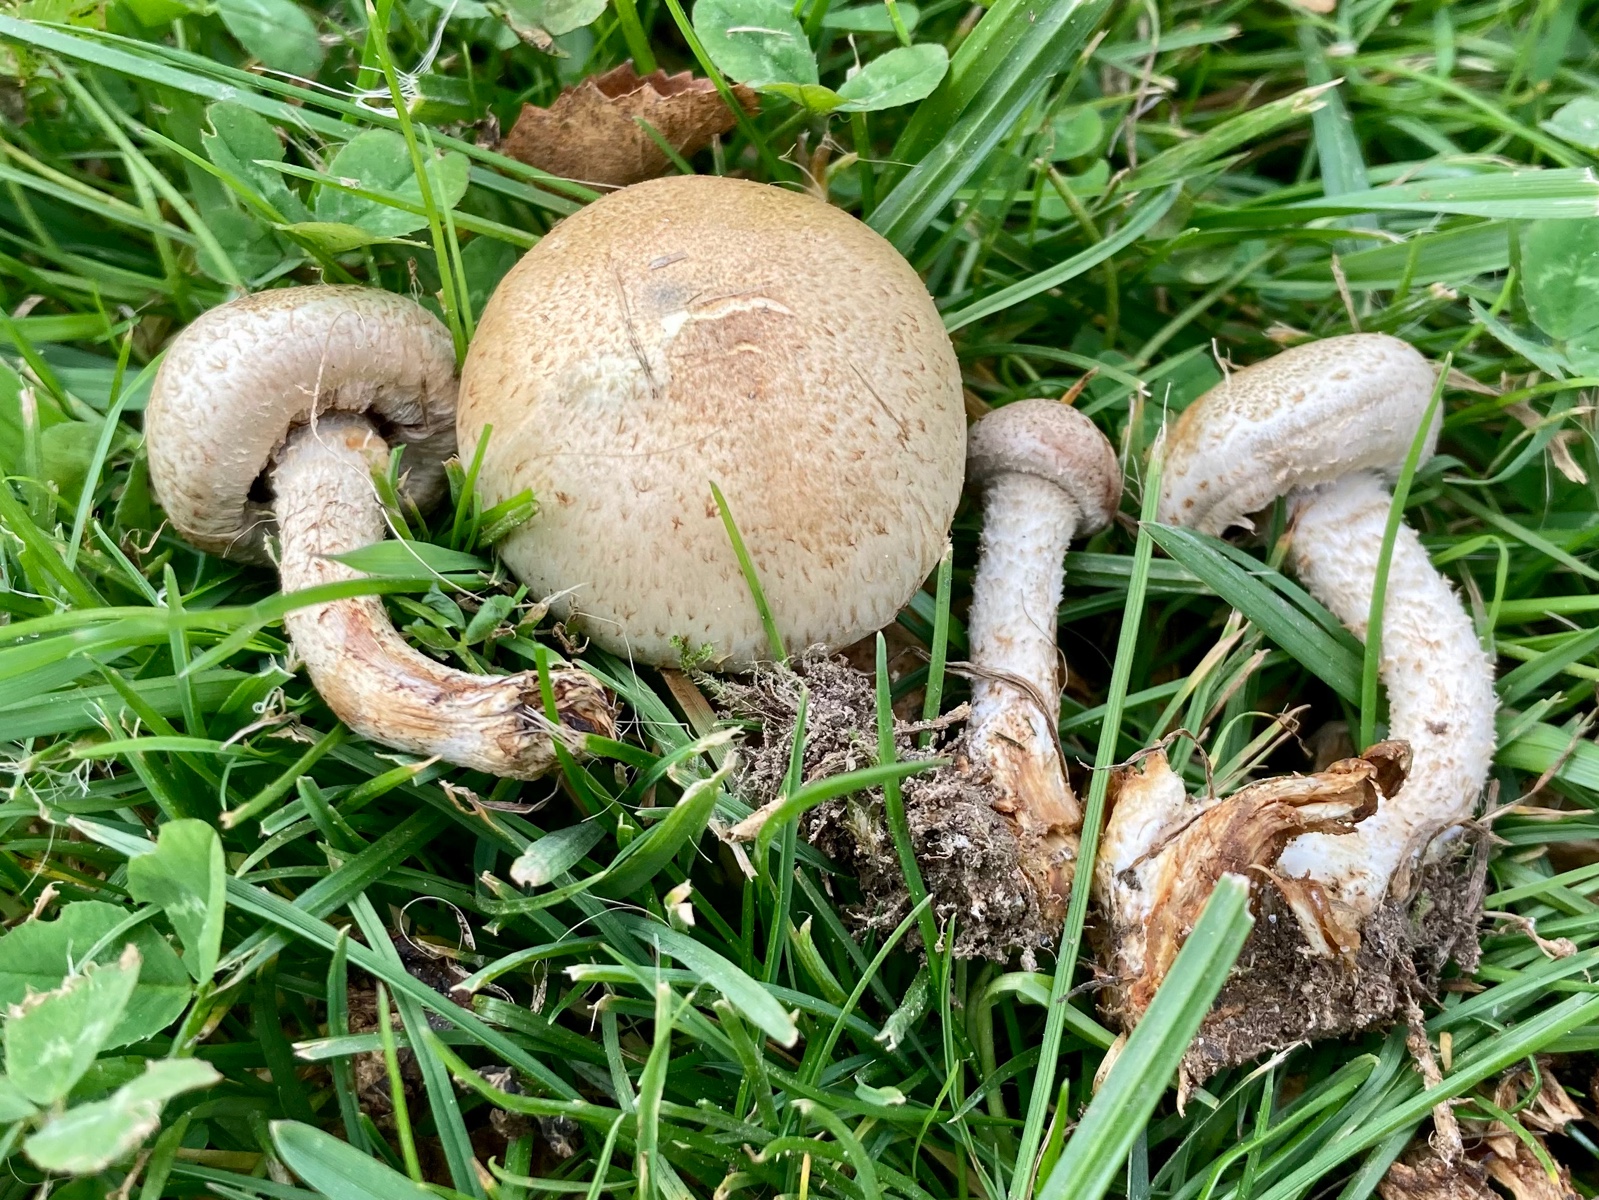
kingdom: Fungi
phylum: Basidiomycota
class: Agaricomycetes
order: Agaricales
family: Strophariaceae
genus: Pholiota
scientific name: Pholiota gummosa
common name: grøngul skælhat
